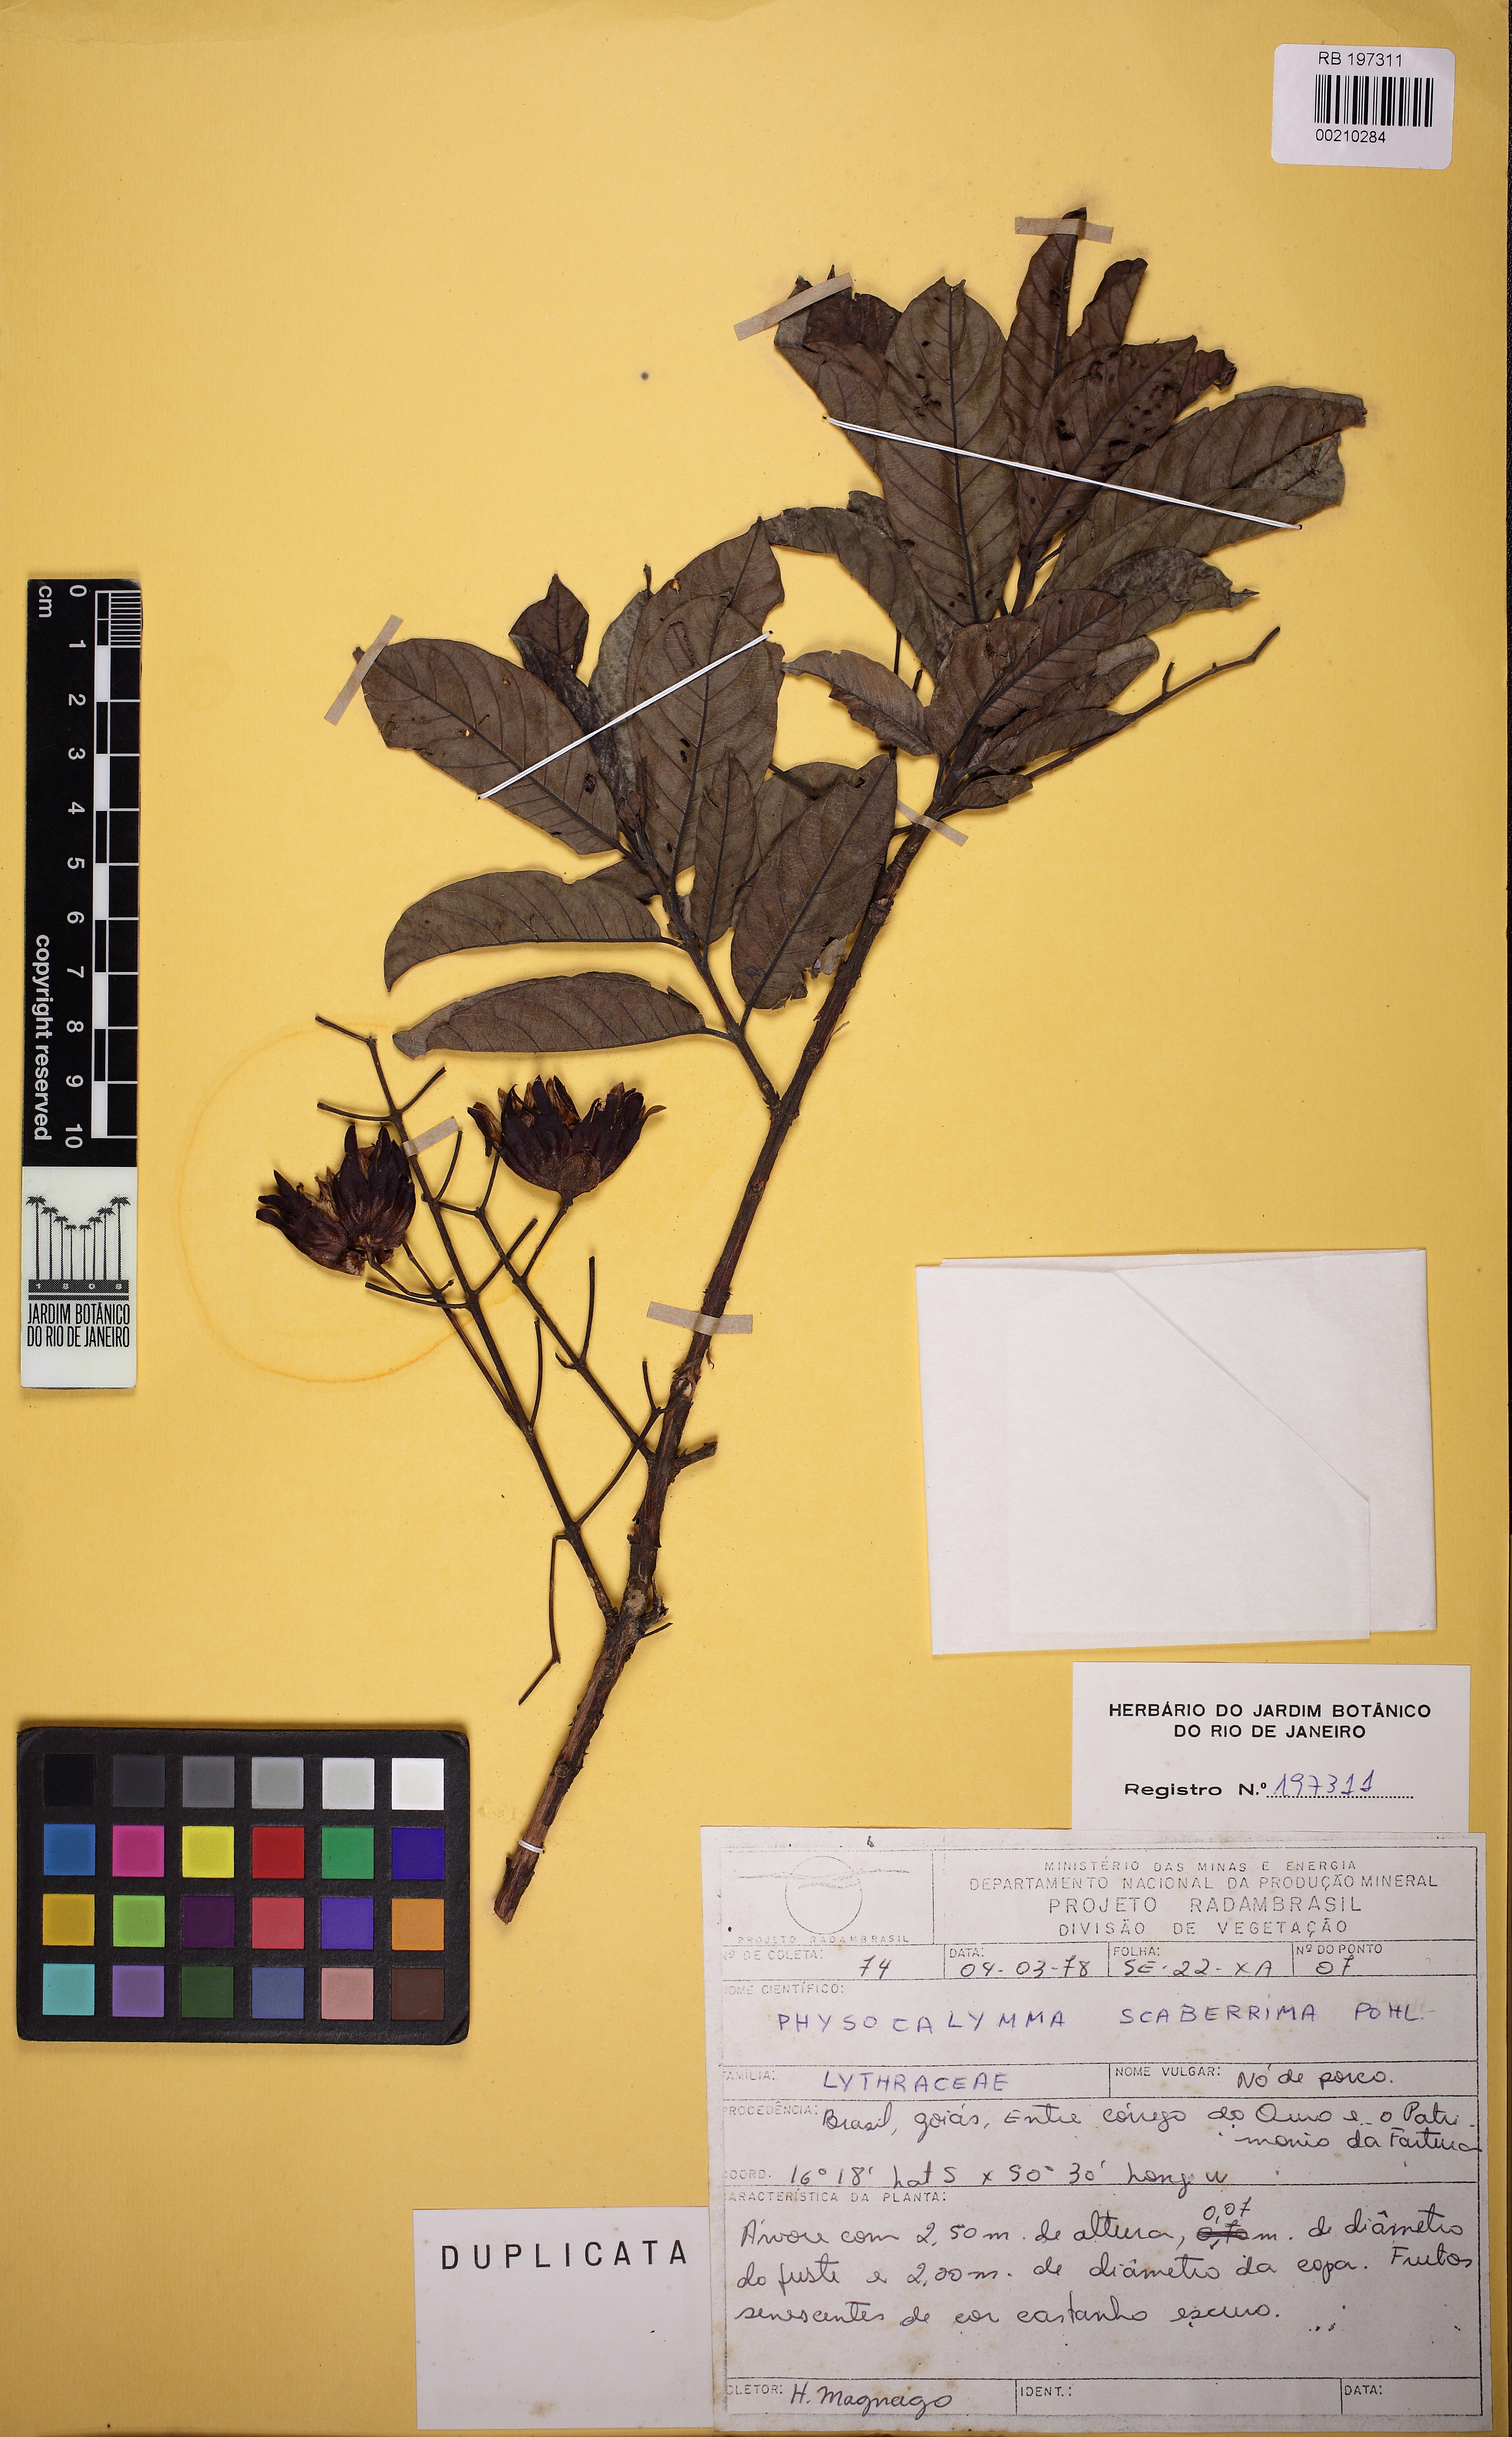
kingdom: Plantae
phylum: Tracheophyta
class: Magnoliopsida
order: Myrtales
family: Lythraceae
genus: Physocalymma
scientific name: Physocalymma scaberrimum
